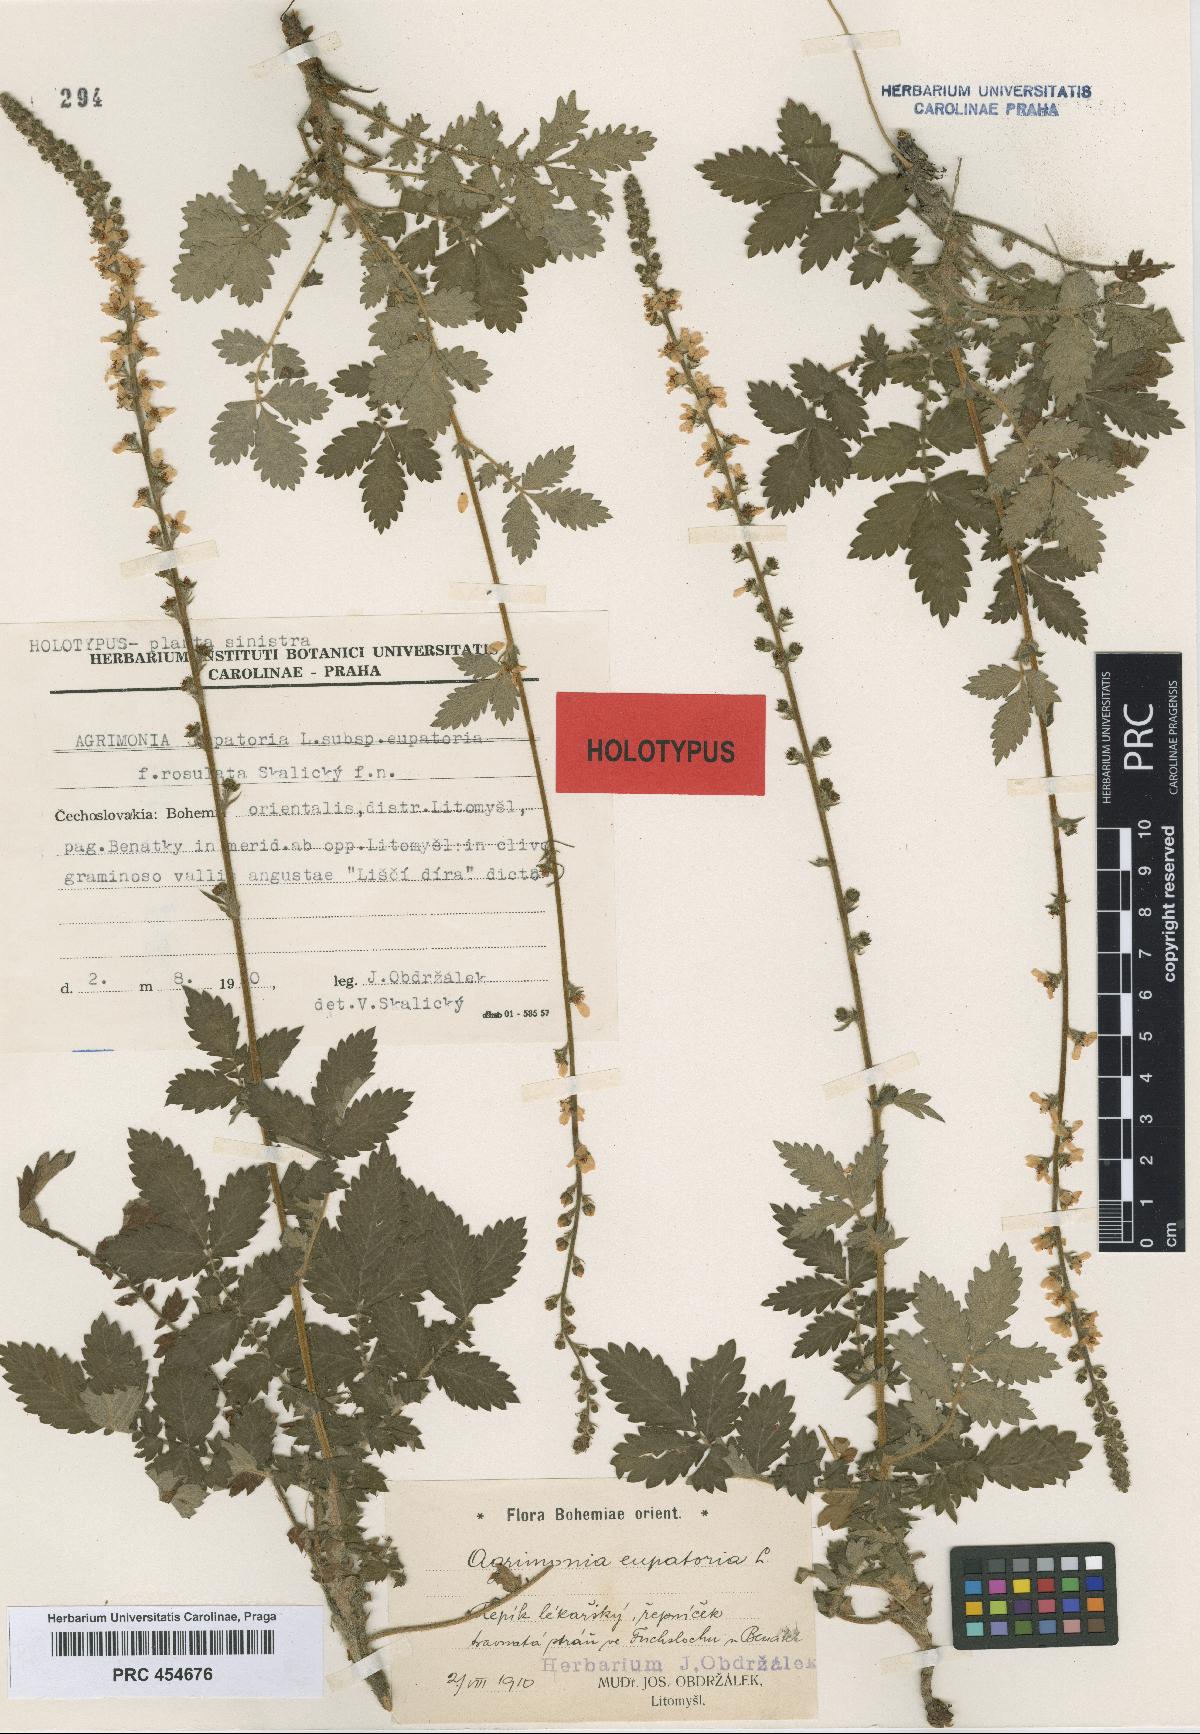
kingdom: Plantae
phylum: Tracheophyta
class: Magnoliopsida
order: Rosales
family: Rosaceae
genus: Agrimonia
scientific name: Agrimonia eupatoria
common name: Agrimony
